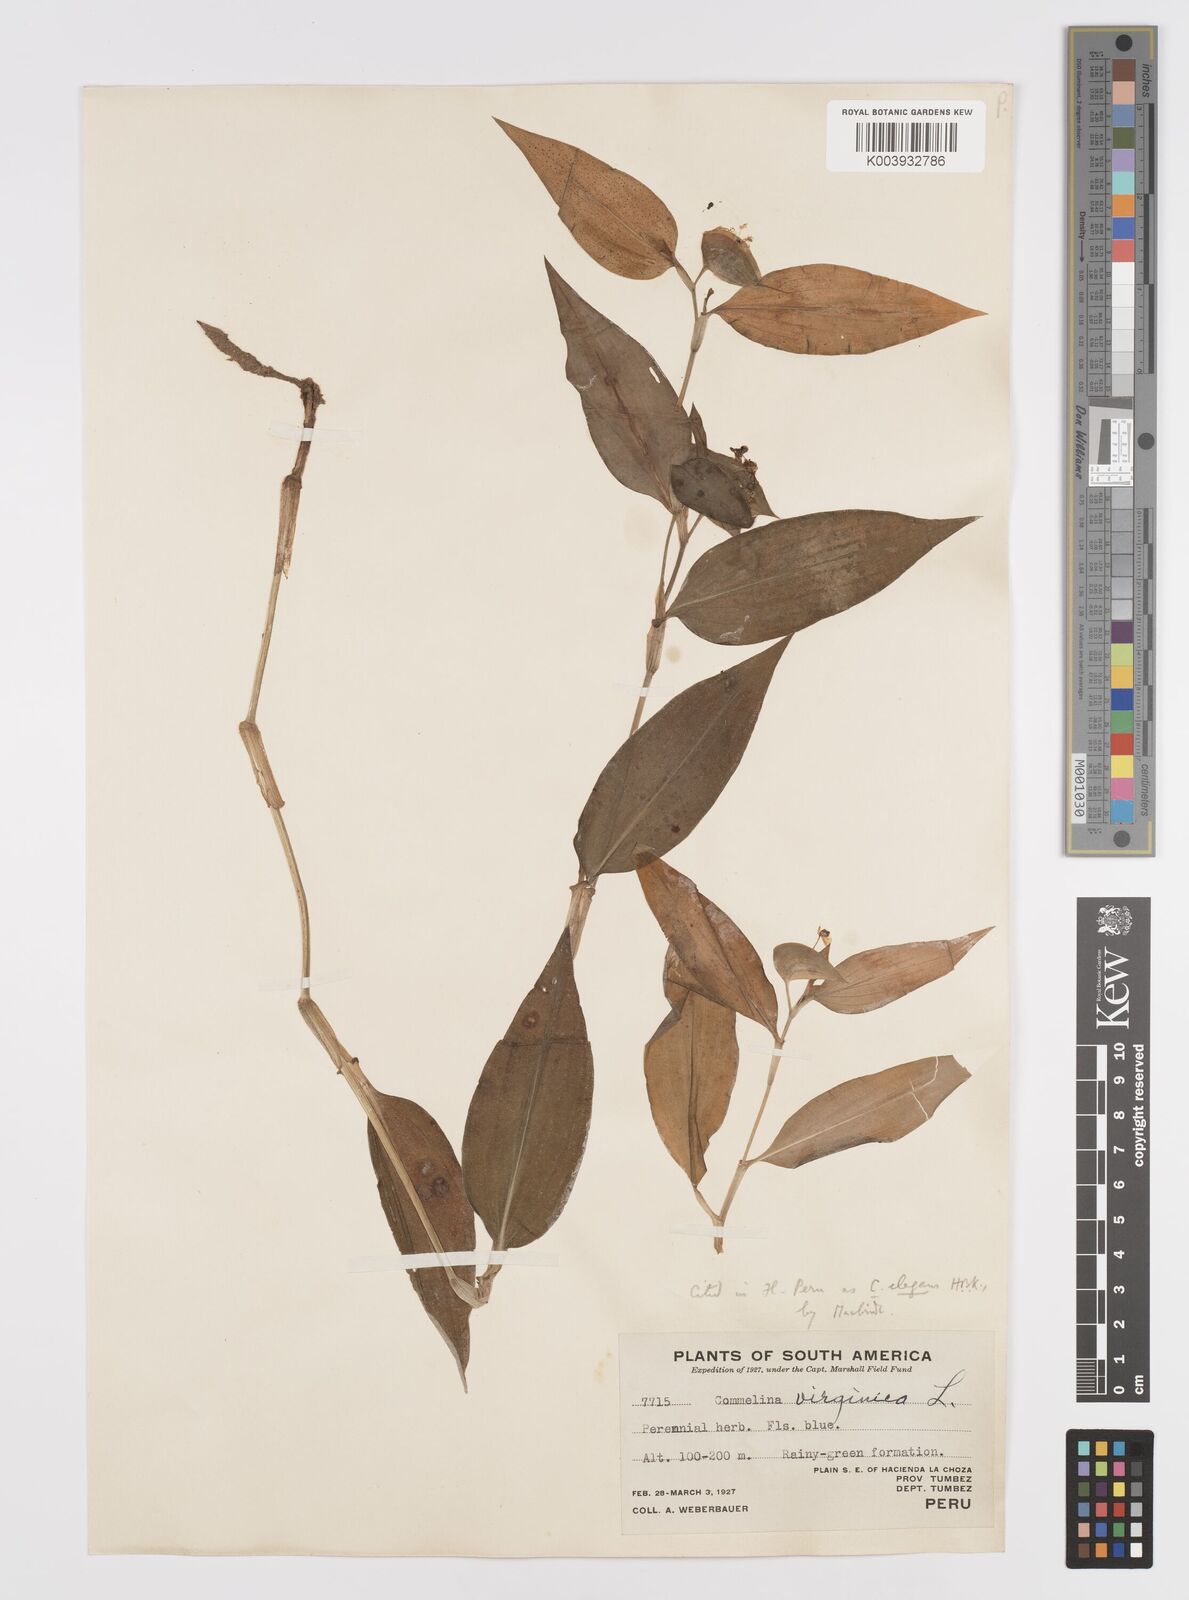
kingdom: Plantae
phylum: Tracheophyta
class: Liliopsida
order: Commelinales
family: Commelinaceae
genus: Commelina
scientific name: Commelina virginica
